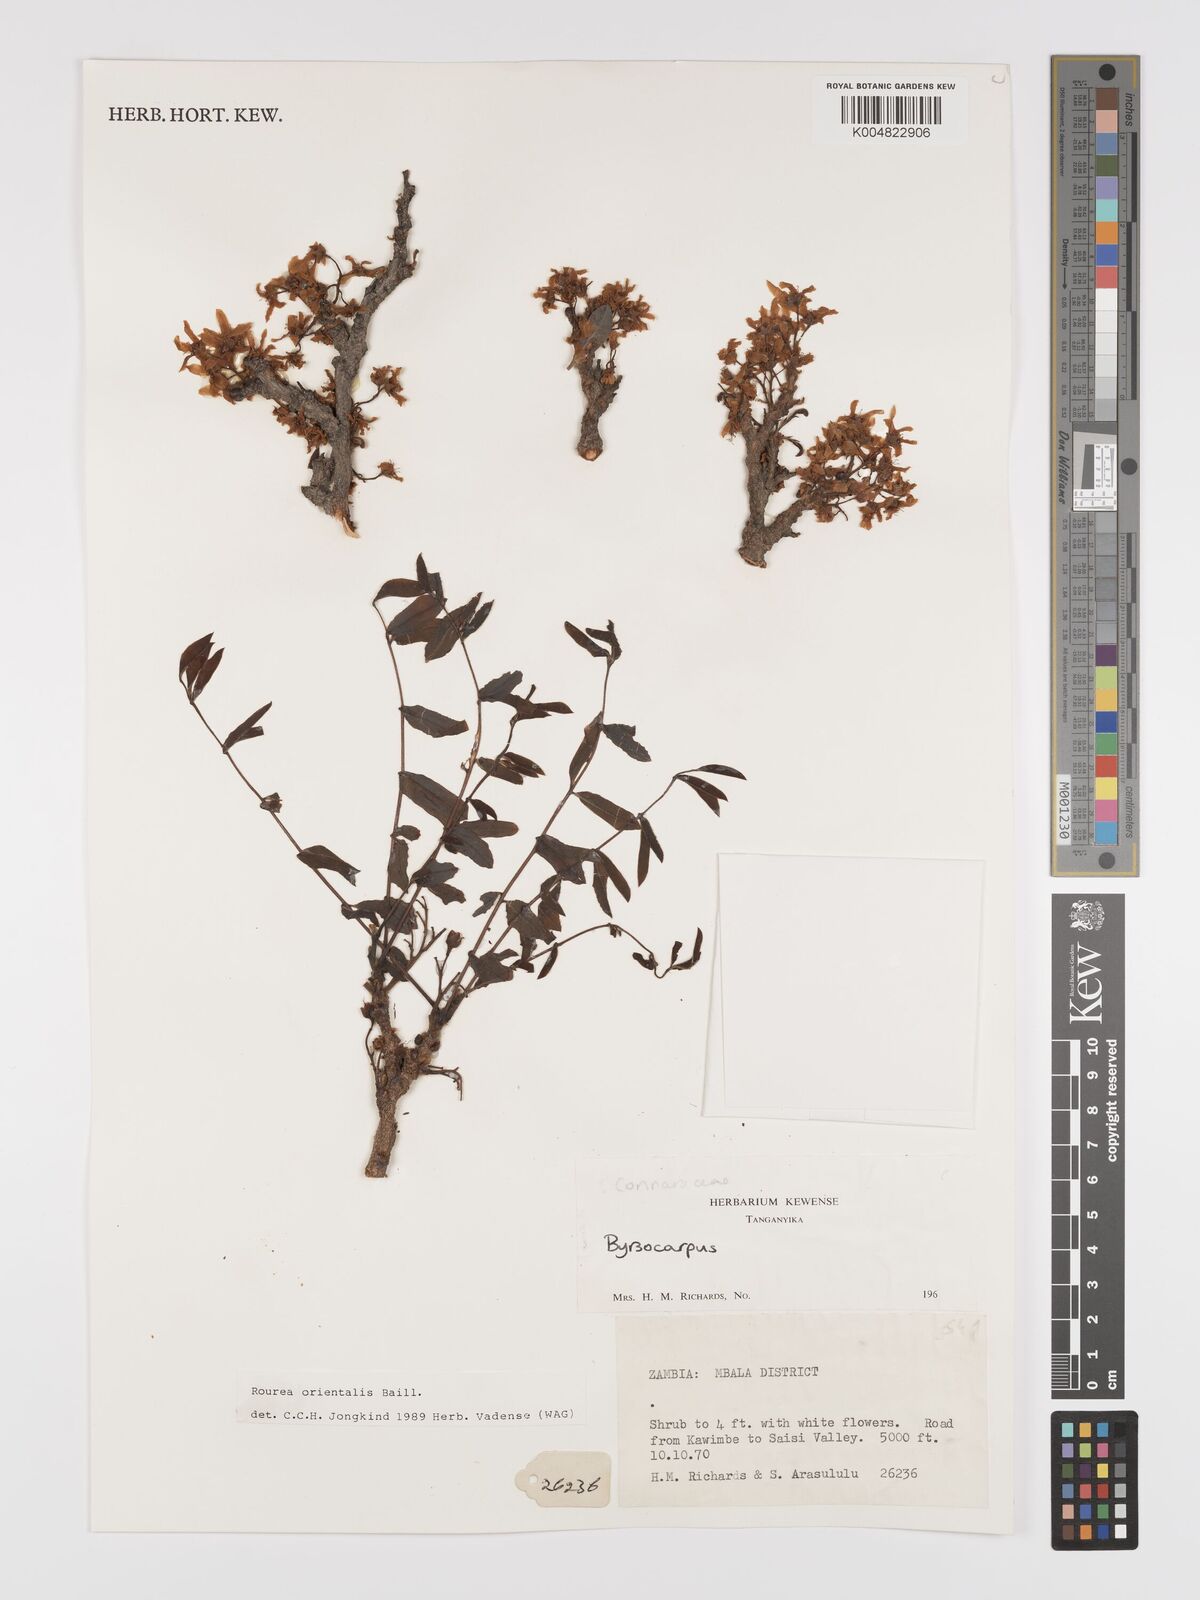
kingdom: Plantae
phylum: Tracheophyta
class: Magnoliopsida
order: Oxalidales
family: Connaraceae
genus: Rourea
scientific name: Rourea orientalis
